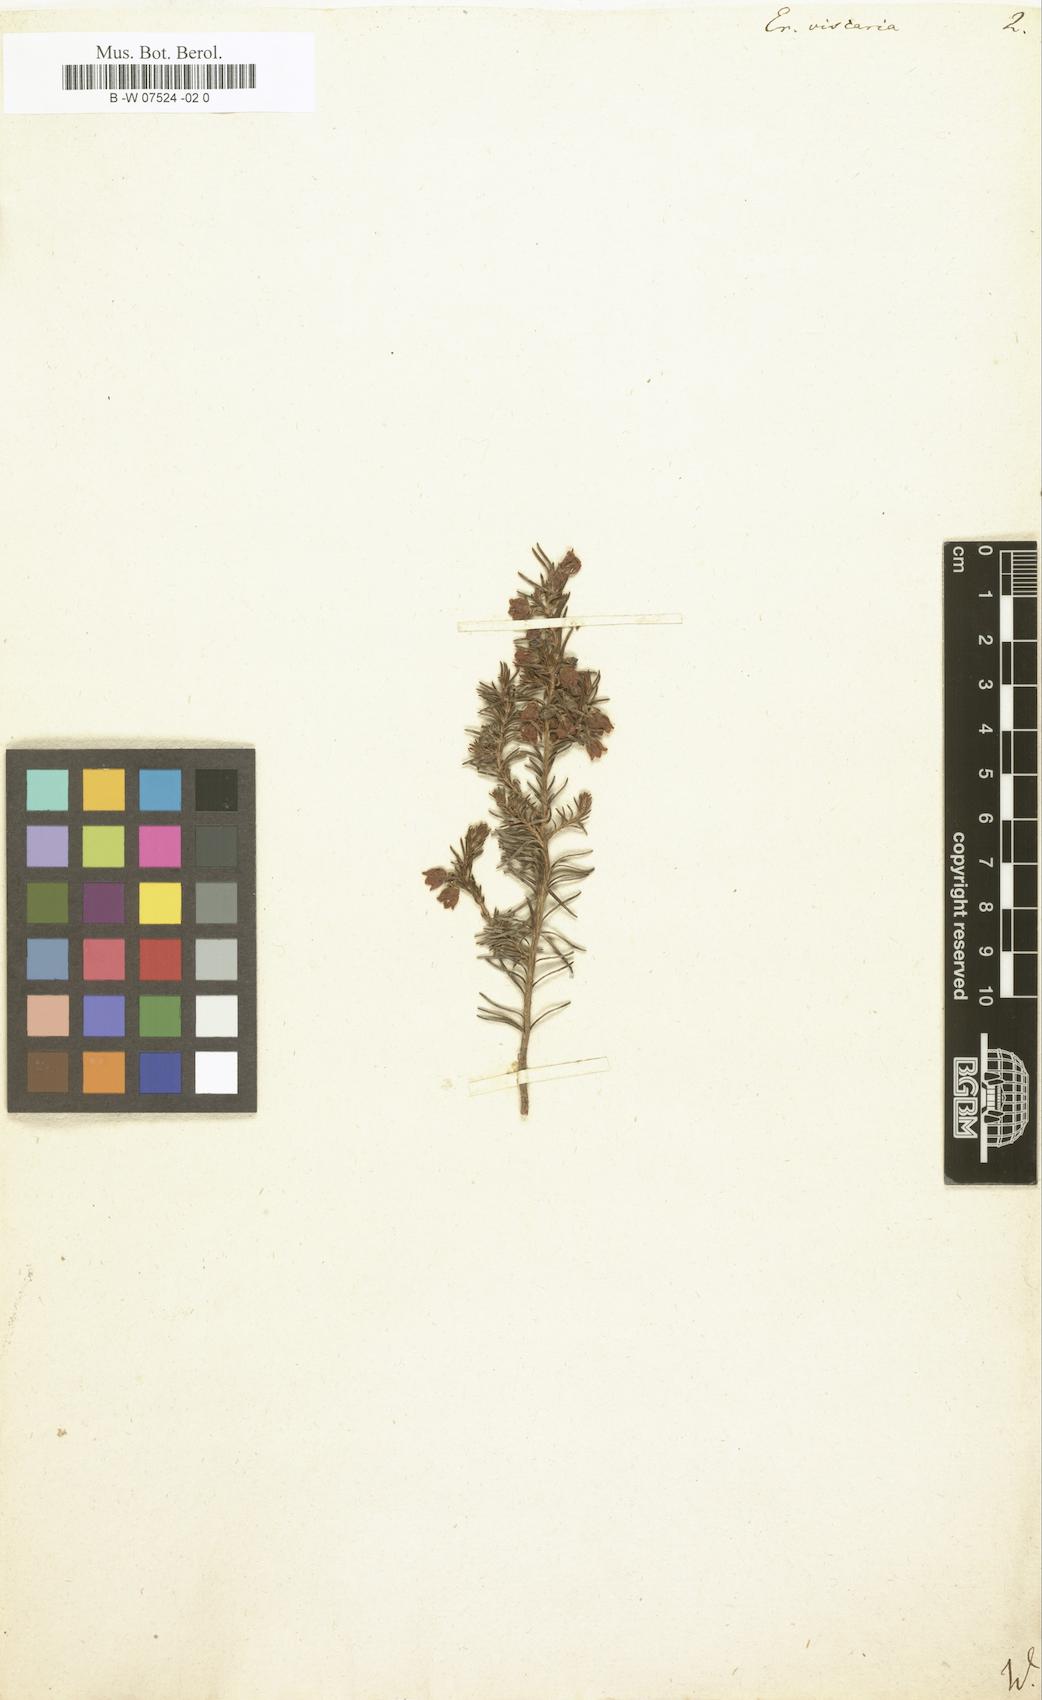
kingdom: Plantae
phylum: Tracheophyta
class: Magnoliopsida
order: Ericales
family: Ericaceae
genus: Erica
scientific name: Erica viscaria
